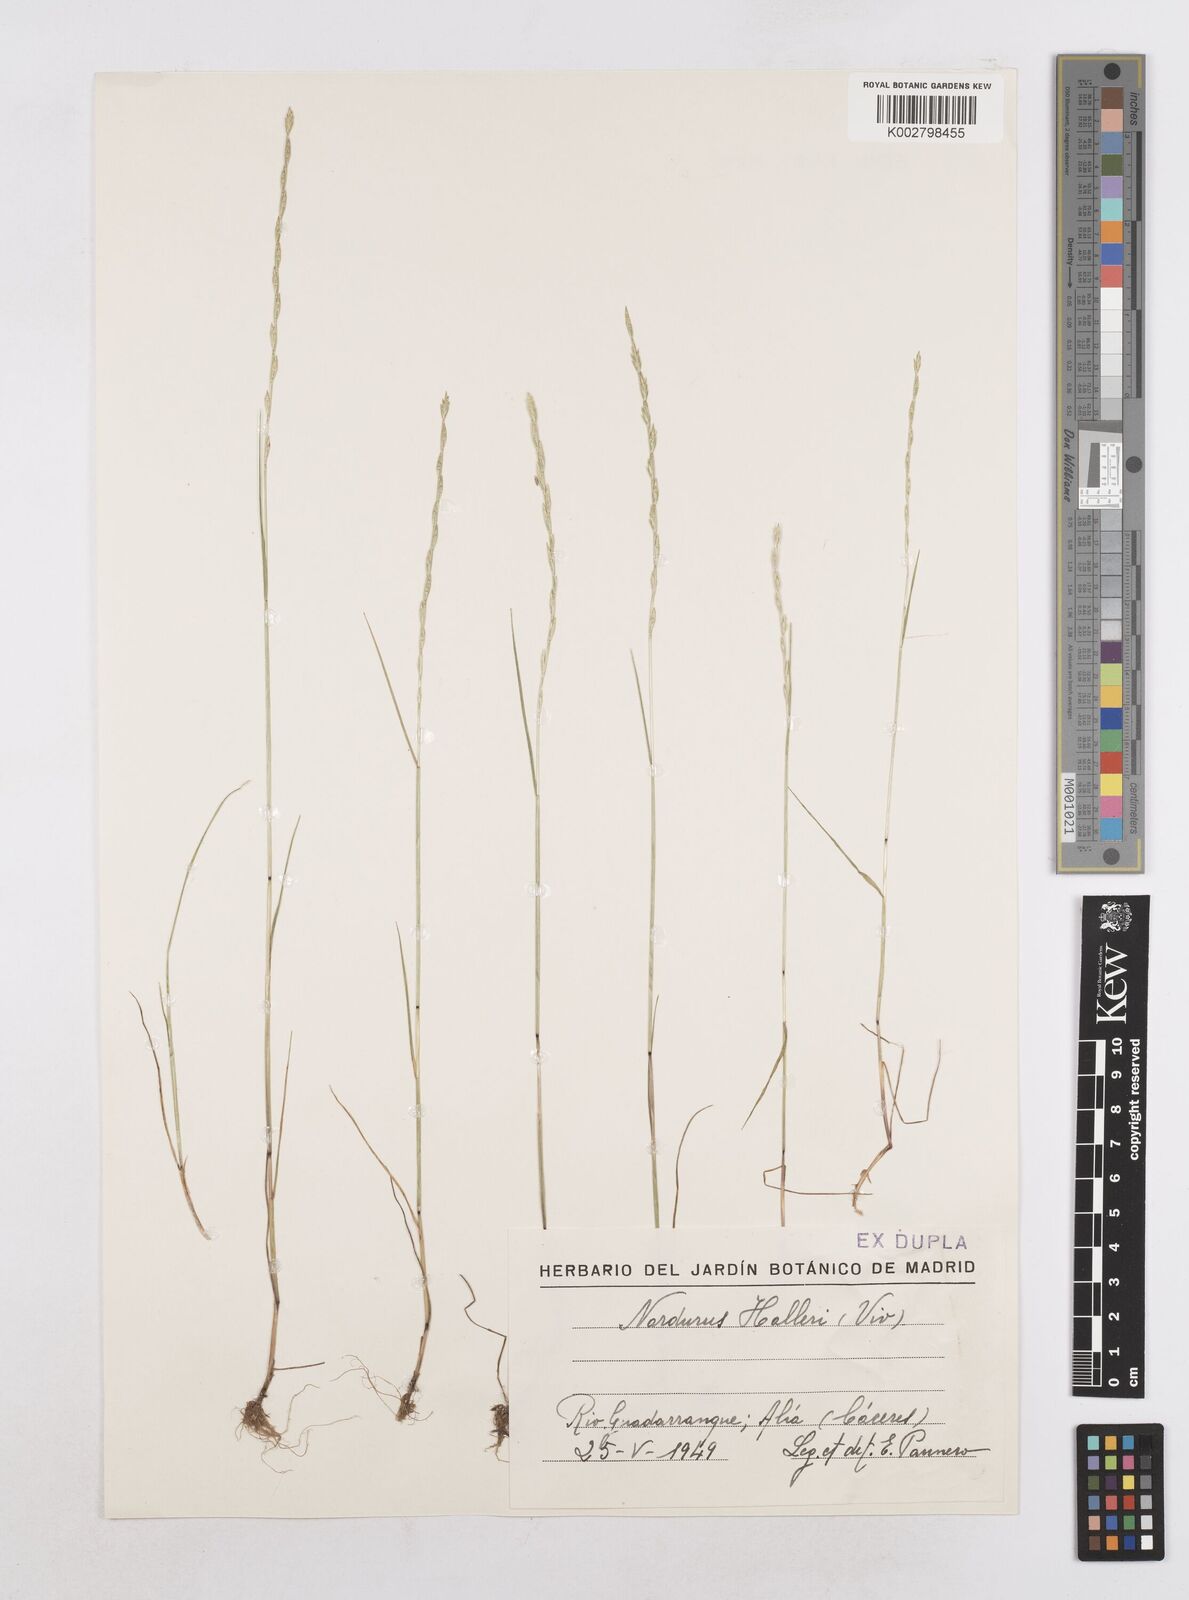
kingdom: Plantae
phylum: Tracheophyta
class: Liliopsida
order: Poales
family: Poaceae
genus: Festuca
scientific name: Festuca lachenalii
